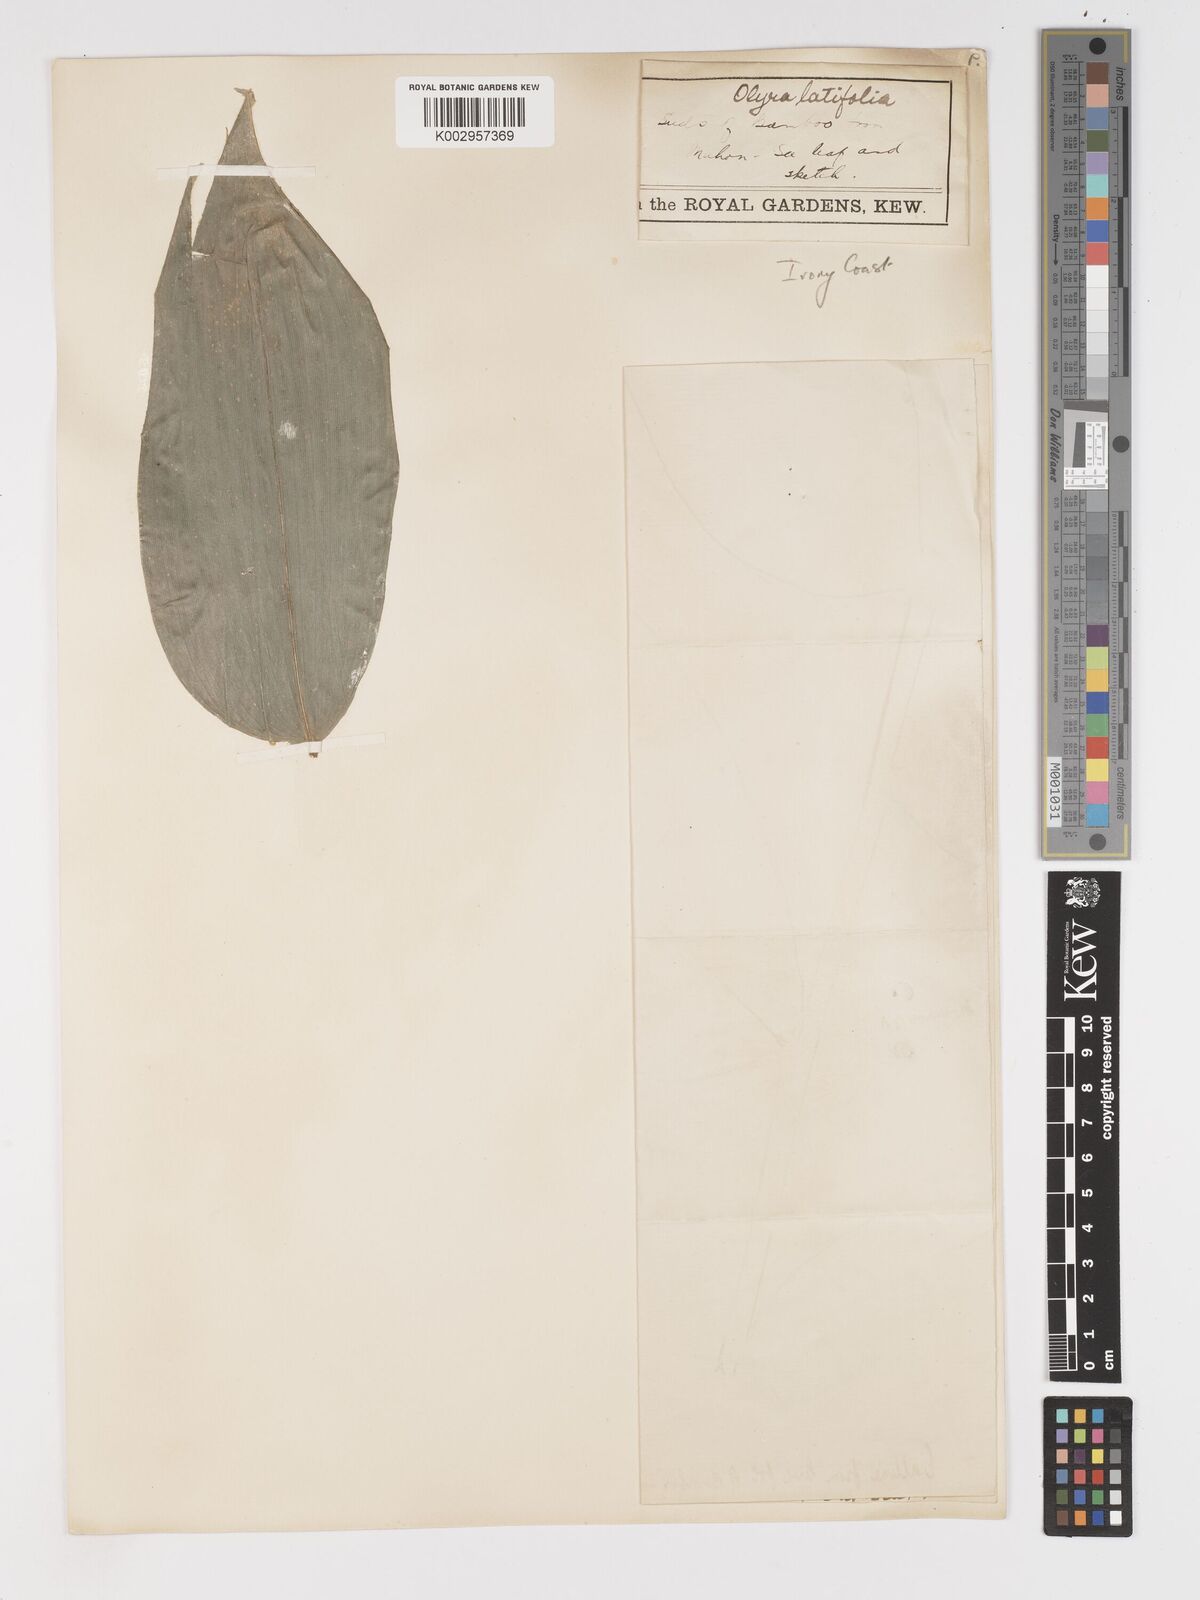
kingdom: Plantae
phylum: Tracheophyta
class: Liliopsida
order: Poales
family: Poaceae
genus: Olyra
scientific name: Olyra latifolia
